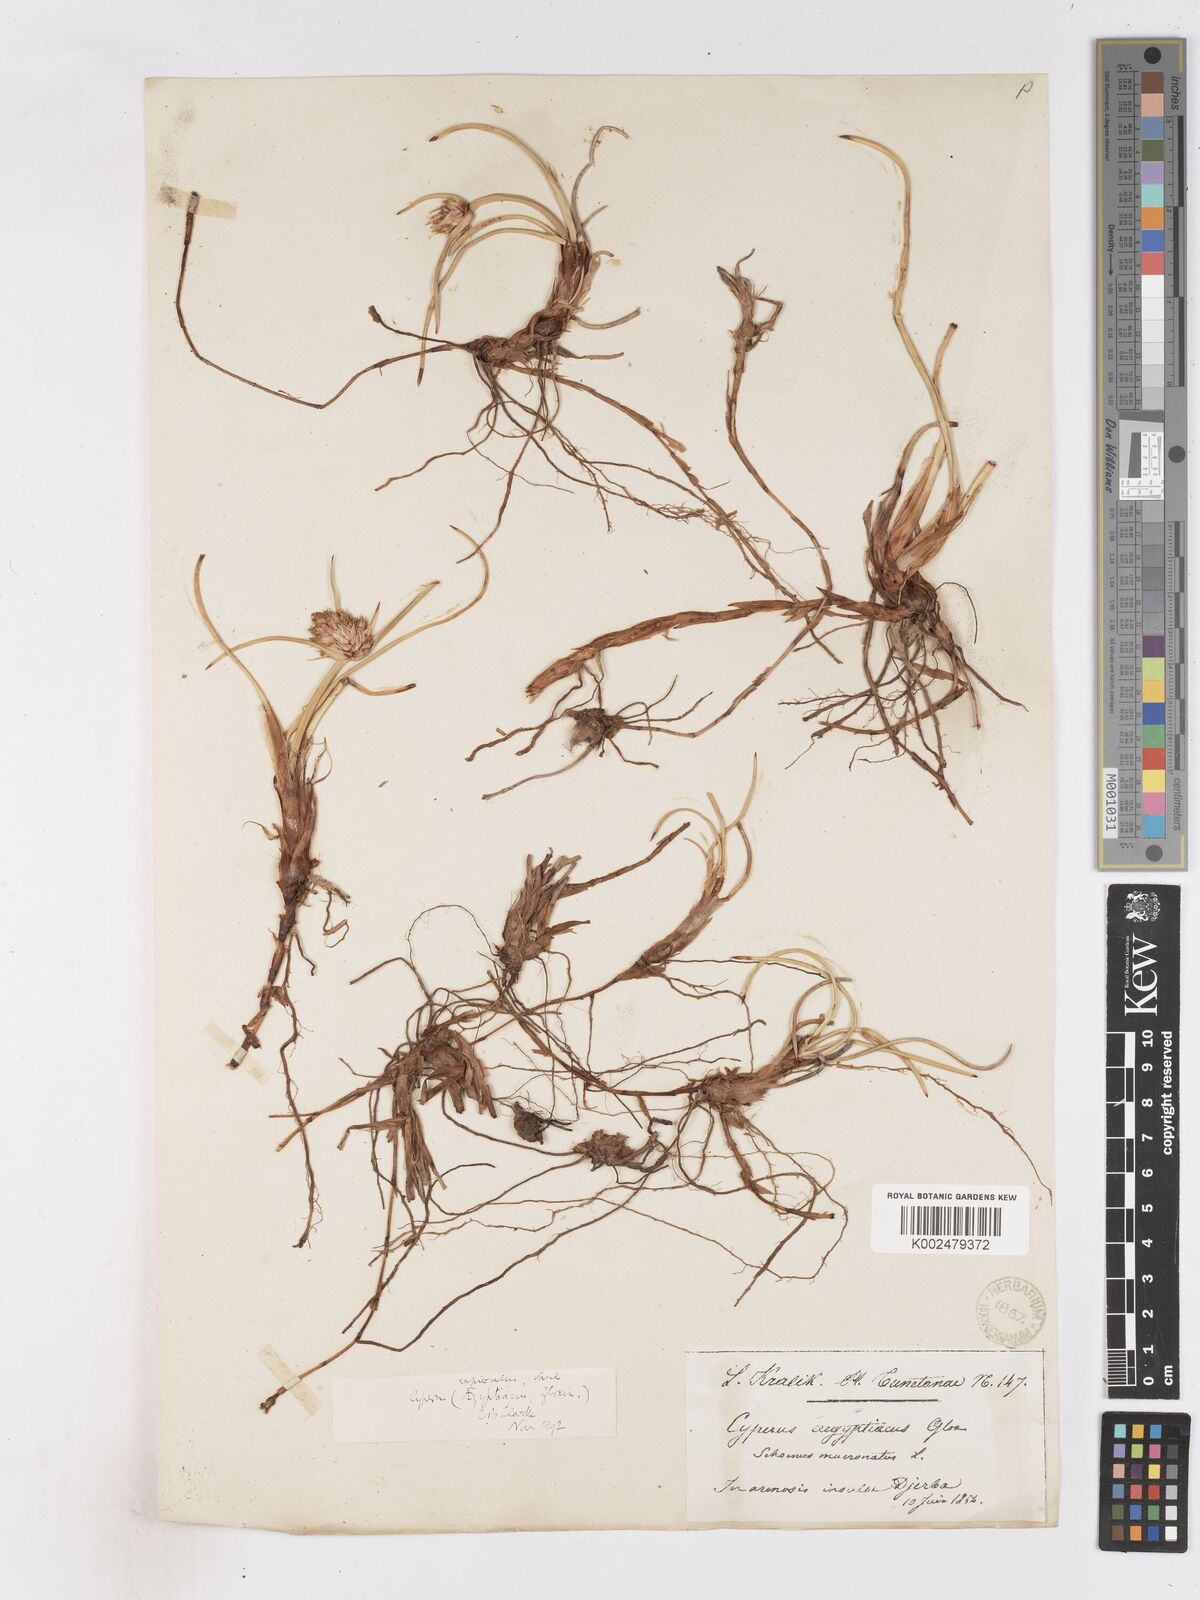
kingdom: Plantae
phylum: Tracheophyta
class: Liliopsida
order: Poales
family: Cyperaceae
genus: Cyperus
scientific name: Cyperus capitatus
